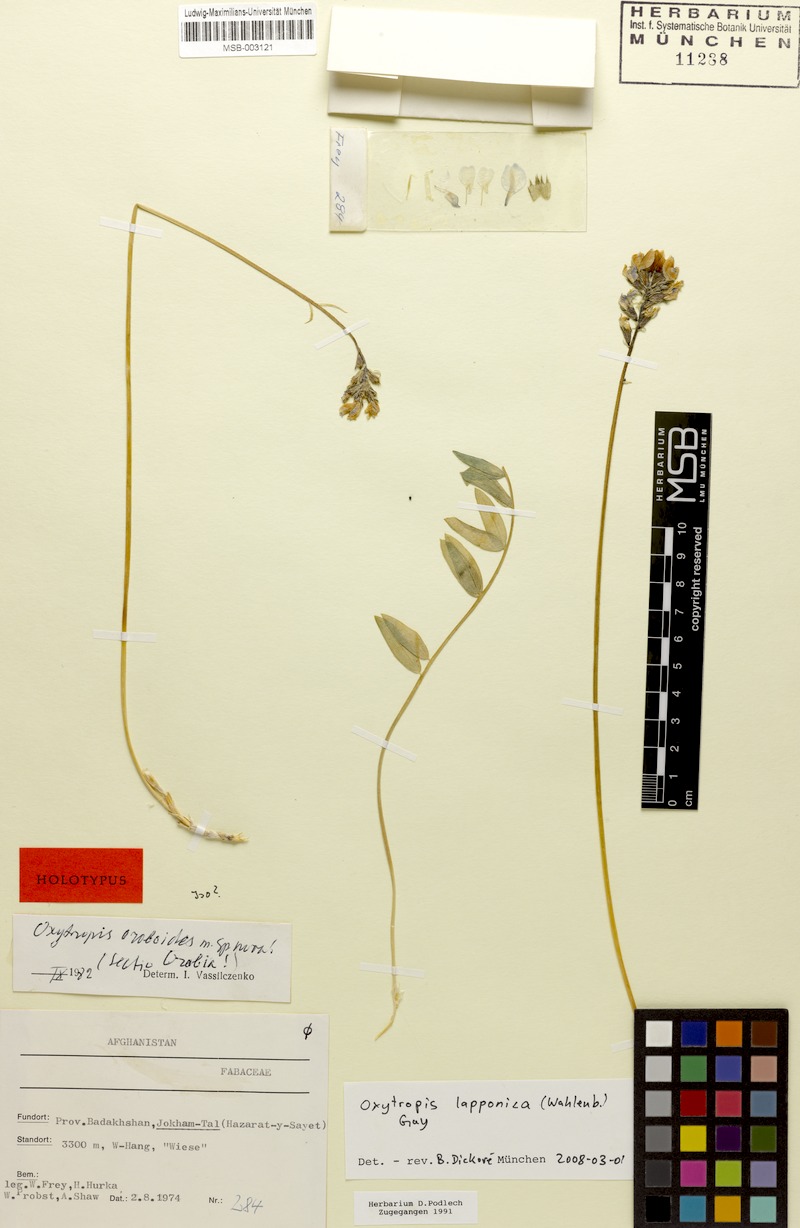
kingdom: Plantae
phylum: Tracheophyta
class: Magnoliopsida
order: Fabales
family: Fabaceae
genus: Oxytropis
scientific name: Oxytropis lapponica
